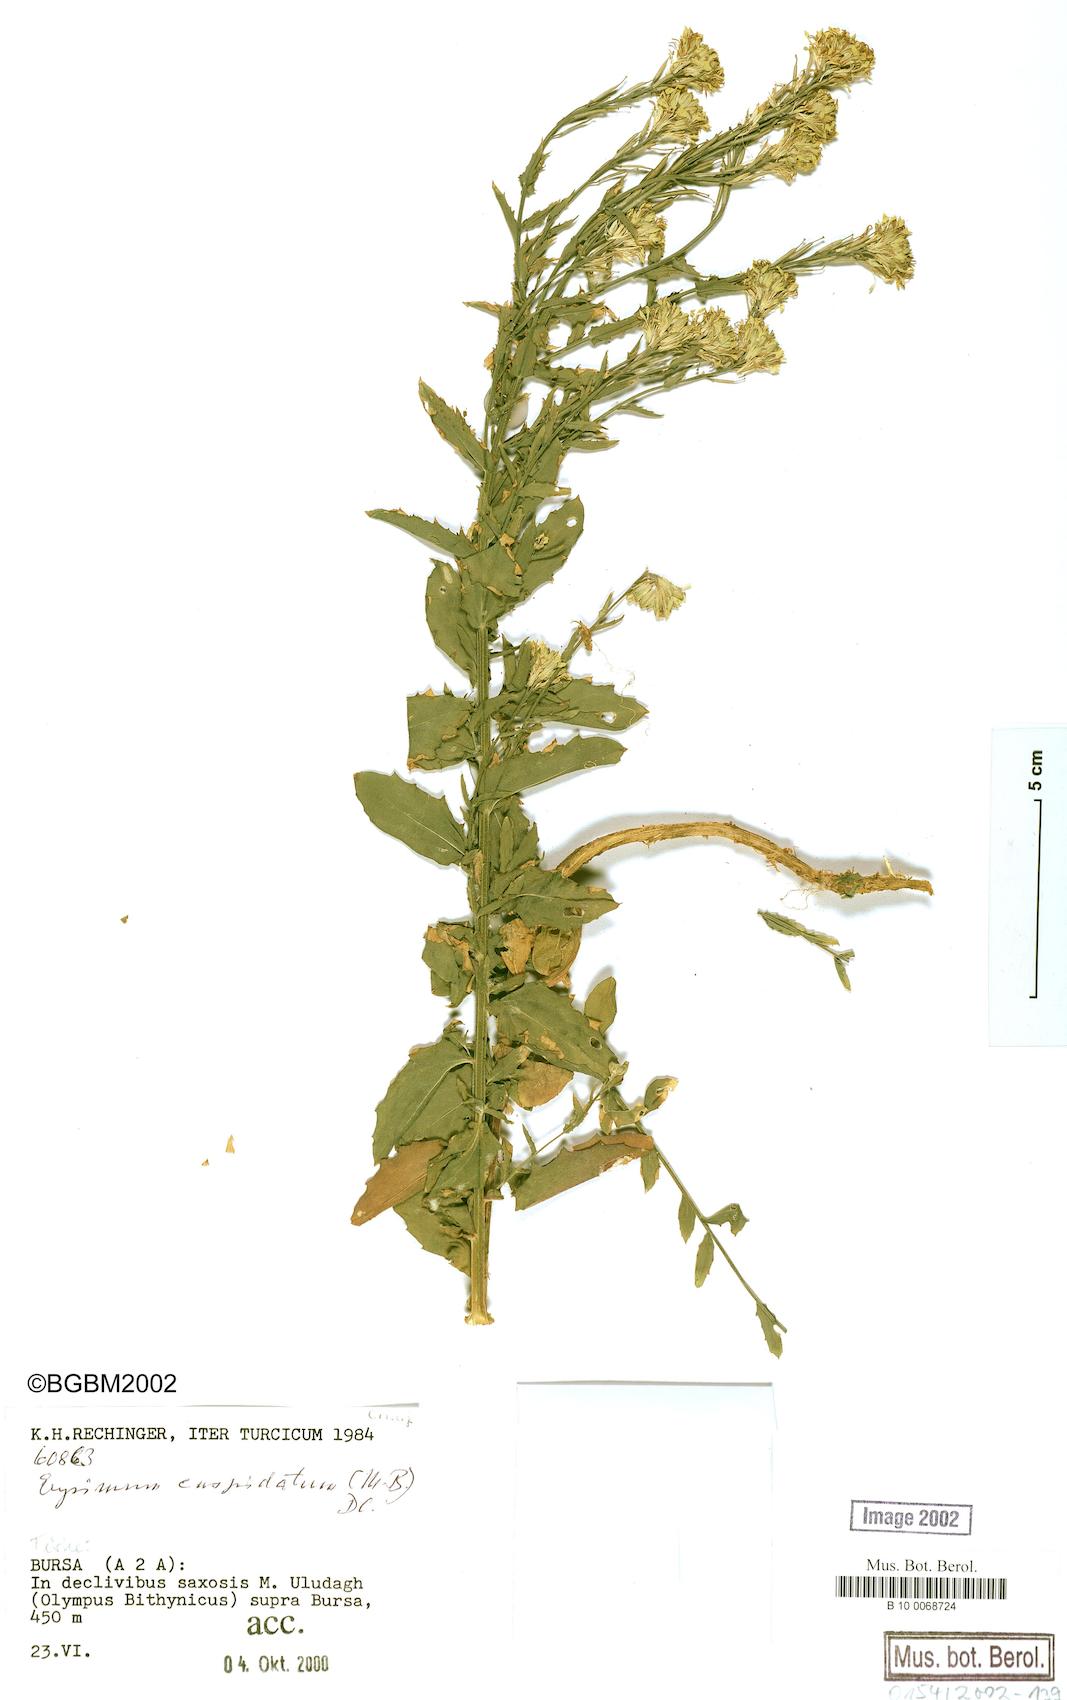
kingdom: Plantae
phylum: Tracheophyta
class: Magnoliopsida
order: Brassicales
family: Brassicaceae
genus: Erysimum
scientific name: Erysimum cuspidatum
